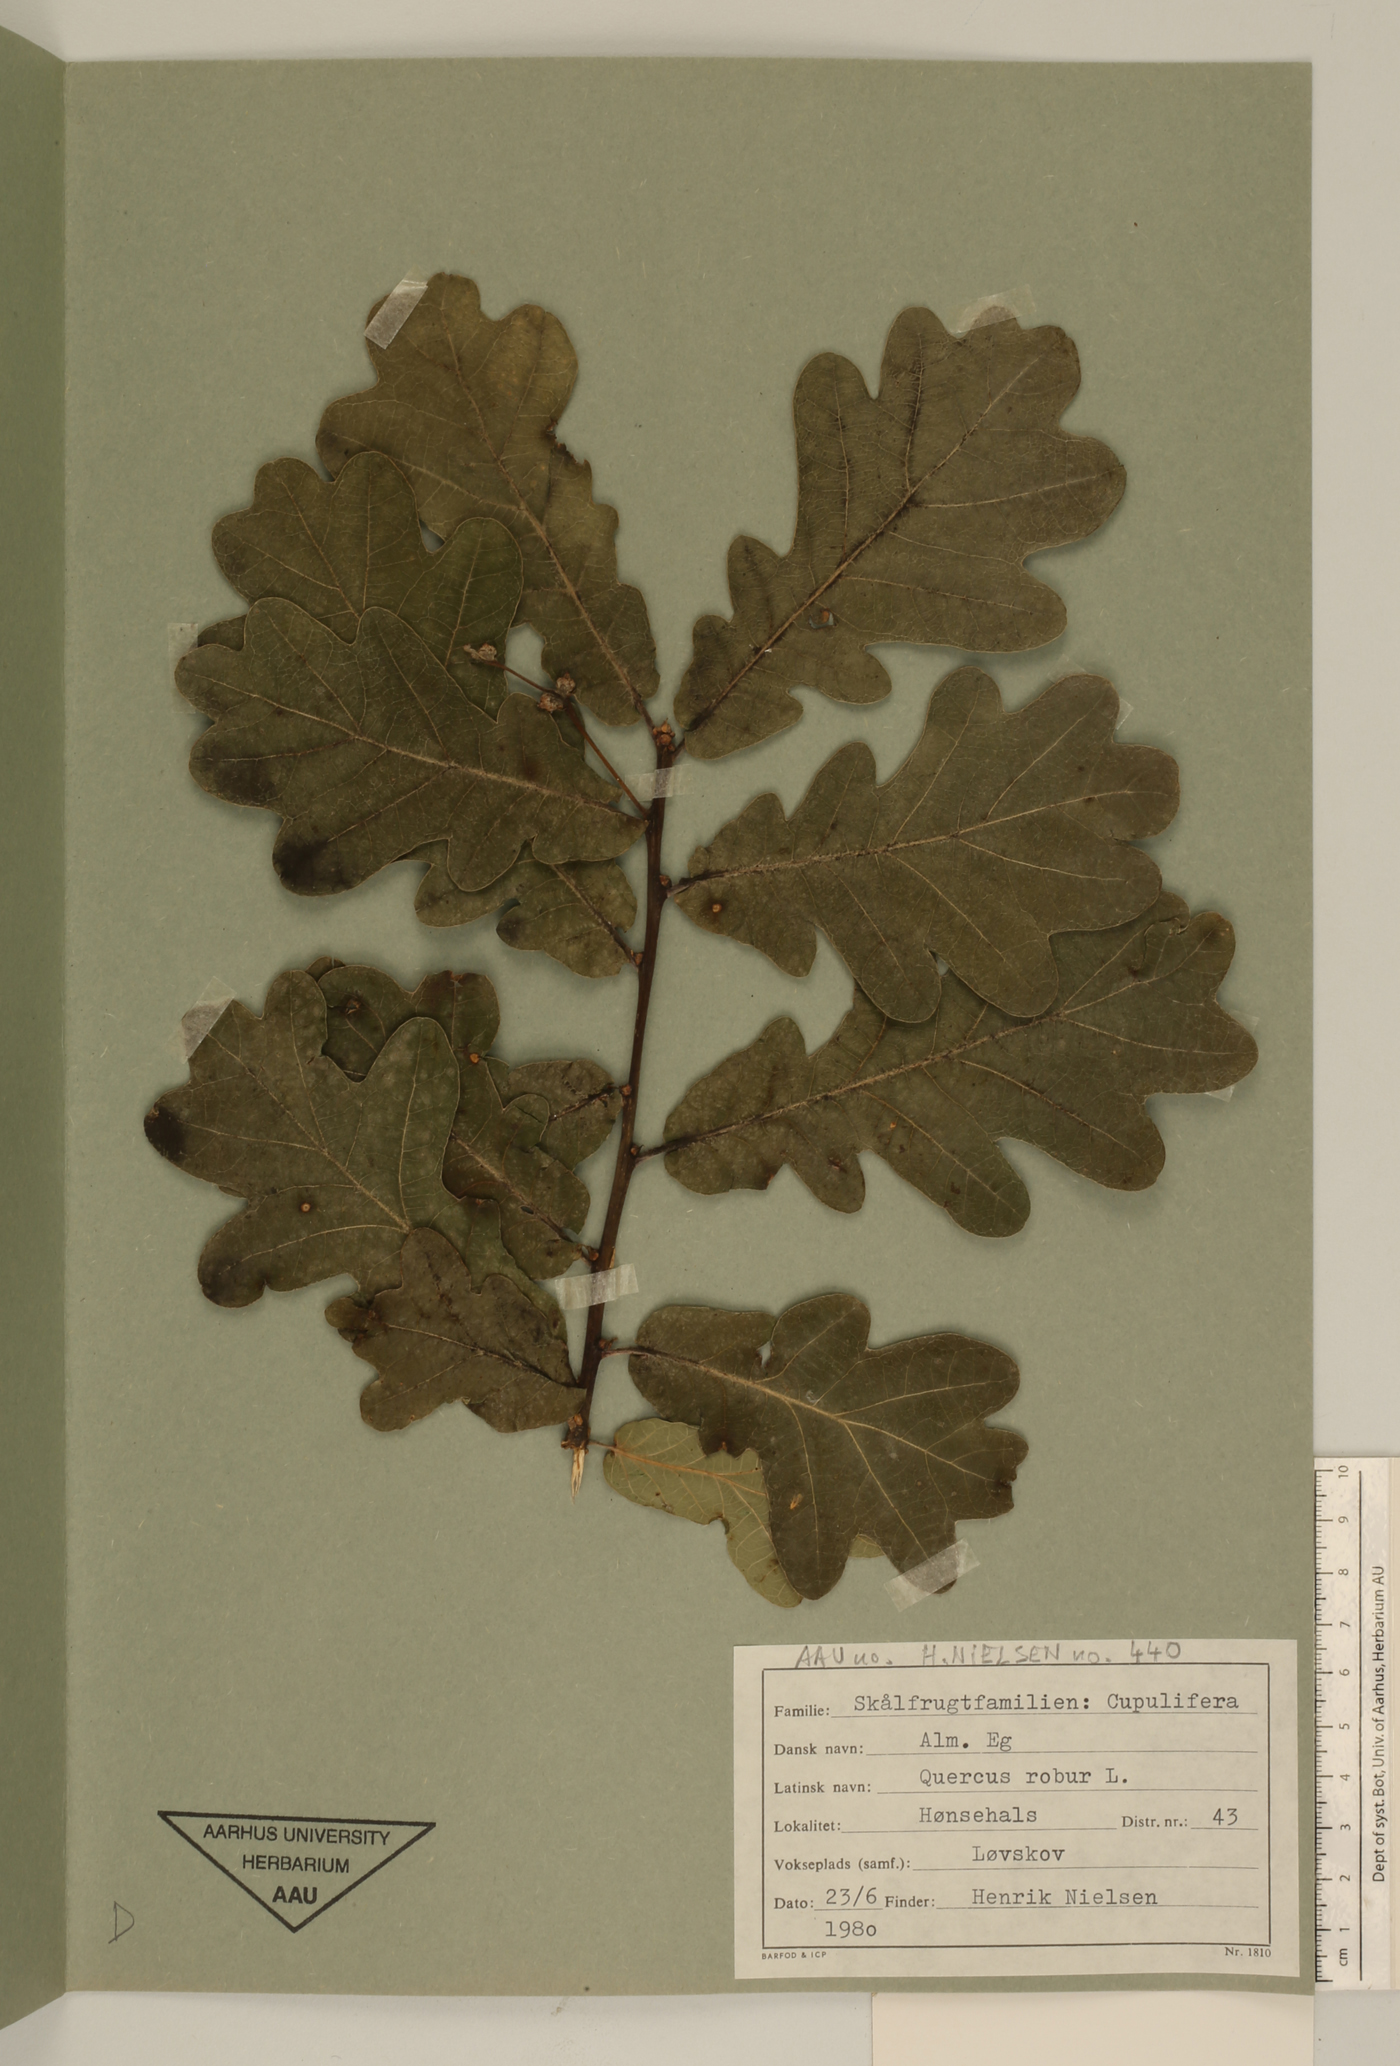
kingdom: Plantae
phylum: Tracheophyta
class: Magnoliopsida
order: Fagales
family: Fagaceae
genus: Quercus
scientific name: Quercus robur
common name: Pedunculate oak
